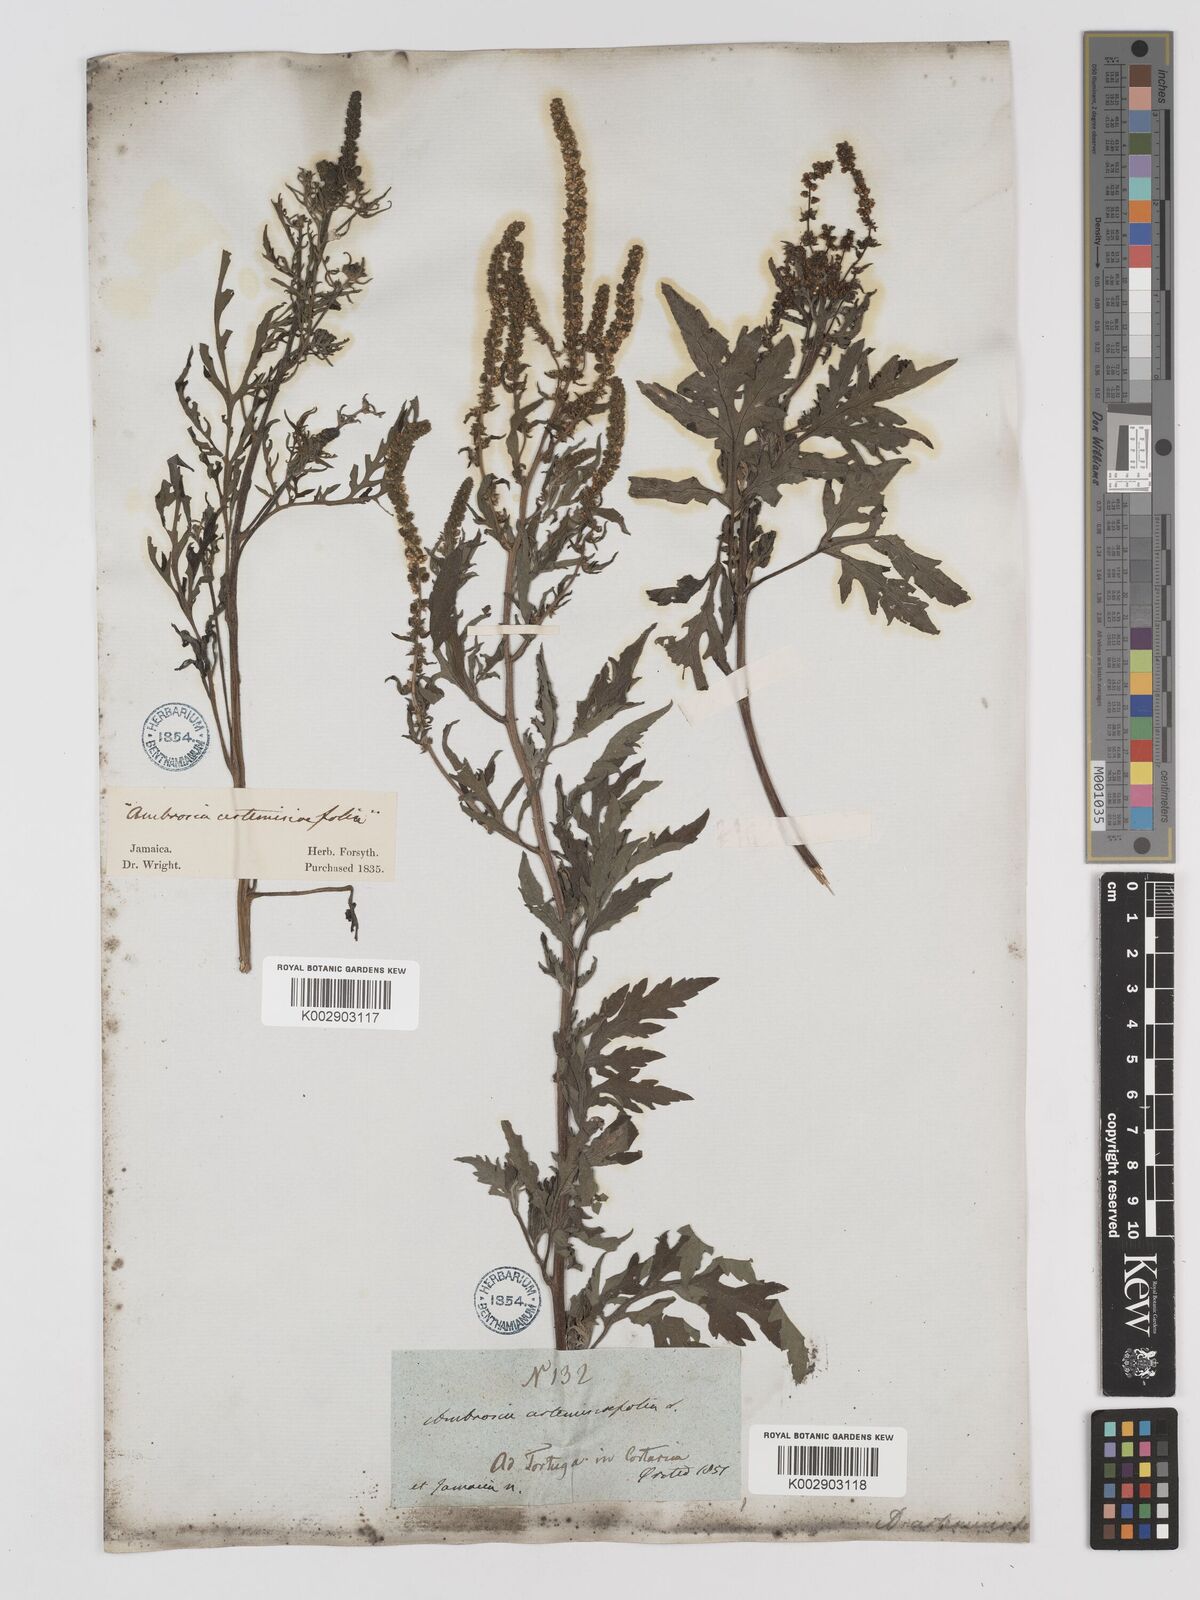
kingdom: Plantae
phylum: Tracheophyta
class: Magnoliopsida
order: Asterales
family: Asteraceae
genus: Ambrosia
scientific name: Ambrosia artemisiifolia
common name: Annual ragweed
